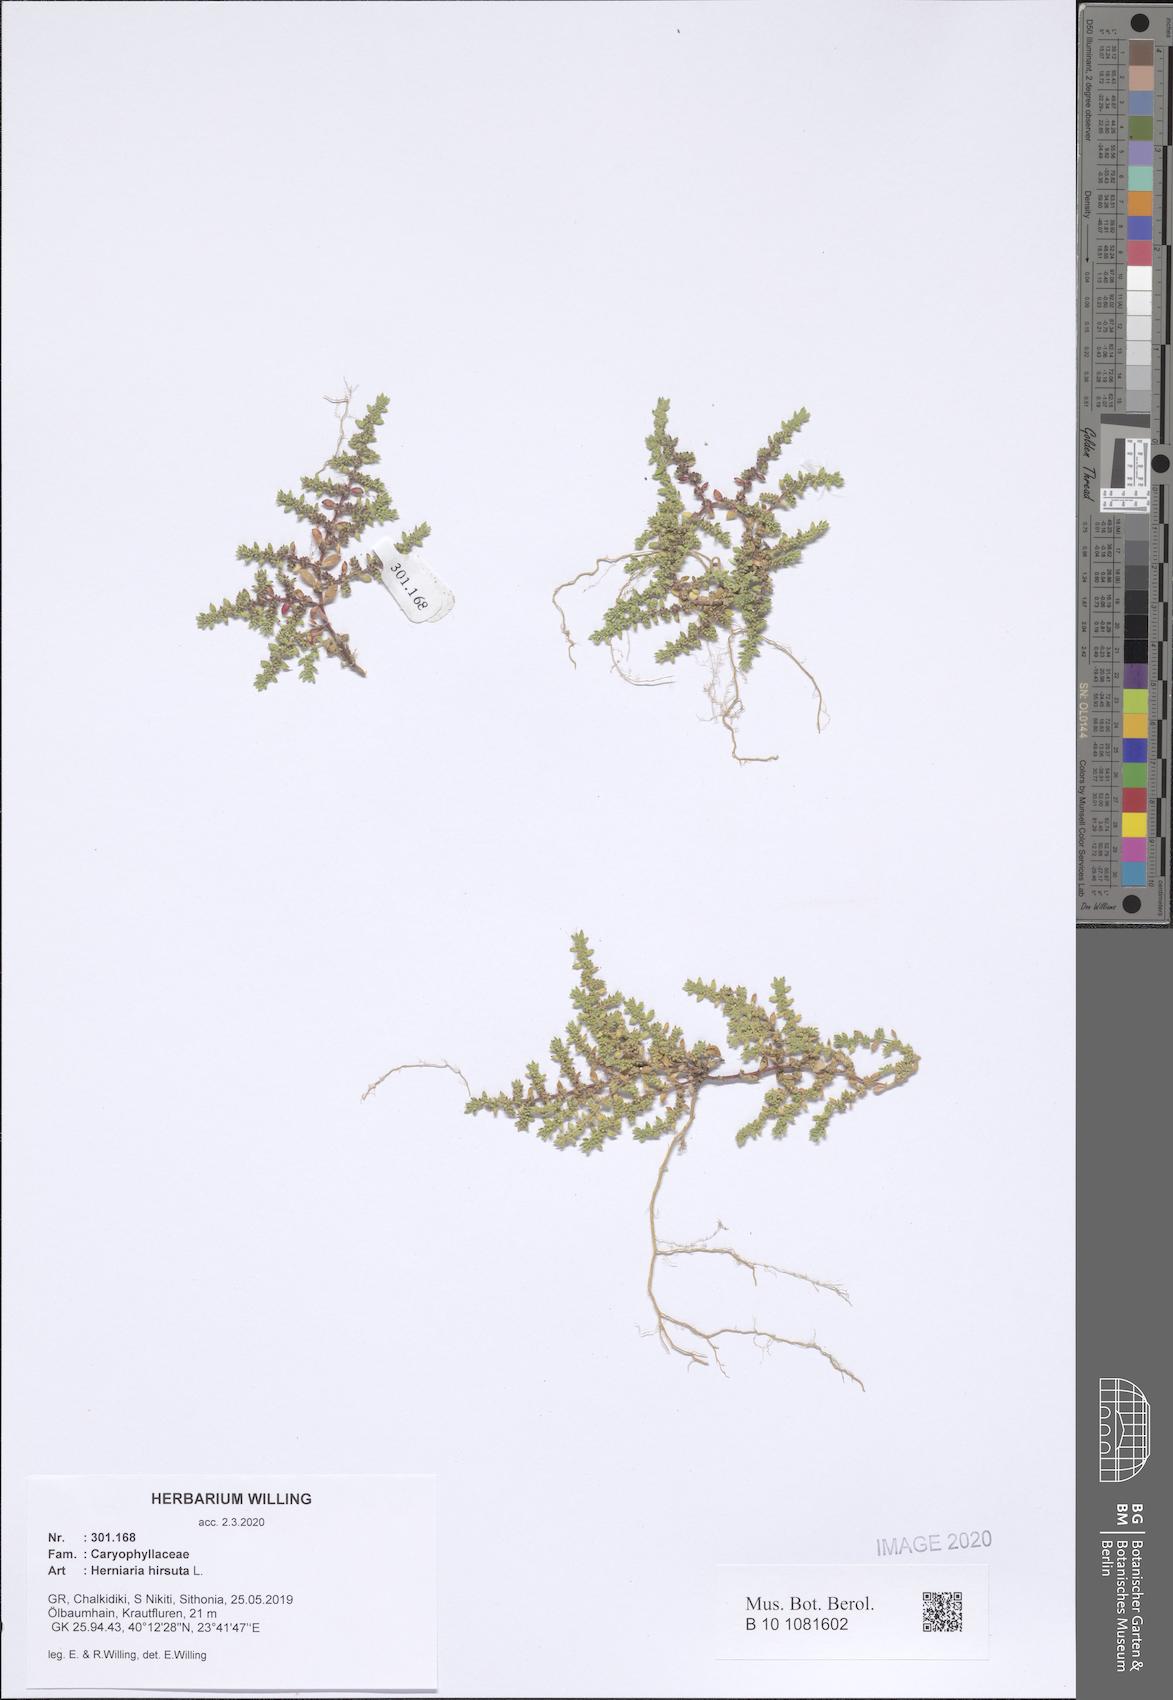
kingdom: Plantae
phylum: Tracheophyta
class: Magnoliopsida
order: Caryophyllales
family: Caryophyllaceae
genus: Herniaria
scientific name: Herniaria hirsuta
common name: Hairy rupturewort
